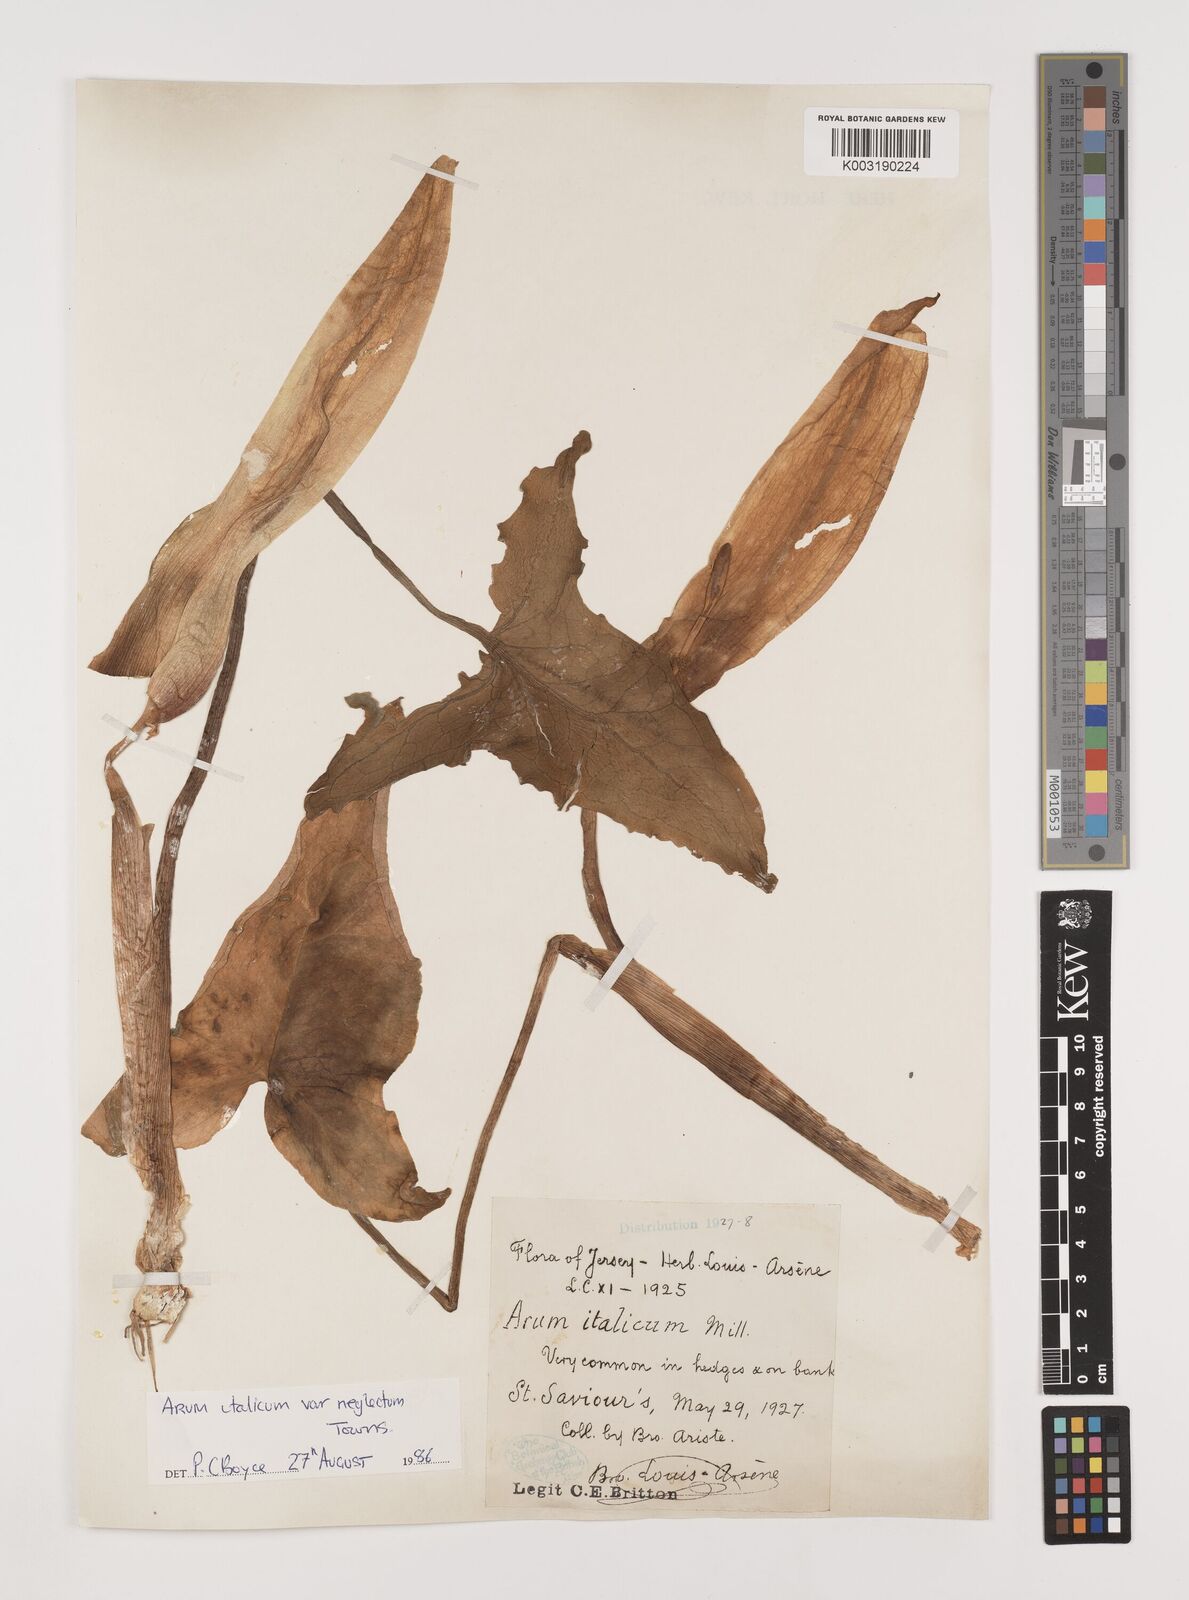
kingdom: Plantae
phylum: Tracheophyta
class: Liliopsida
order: Alismatales
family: Araceae
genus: Arum
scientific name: Arum italicum
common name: Italian lords-and-ladies
